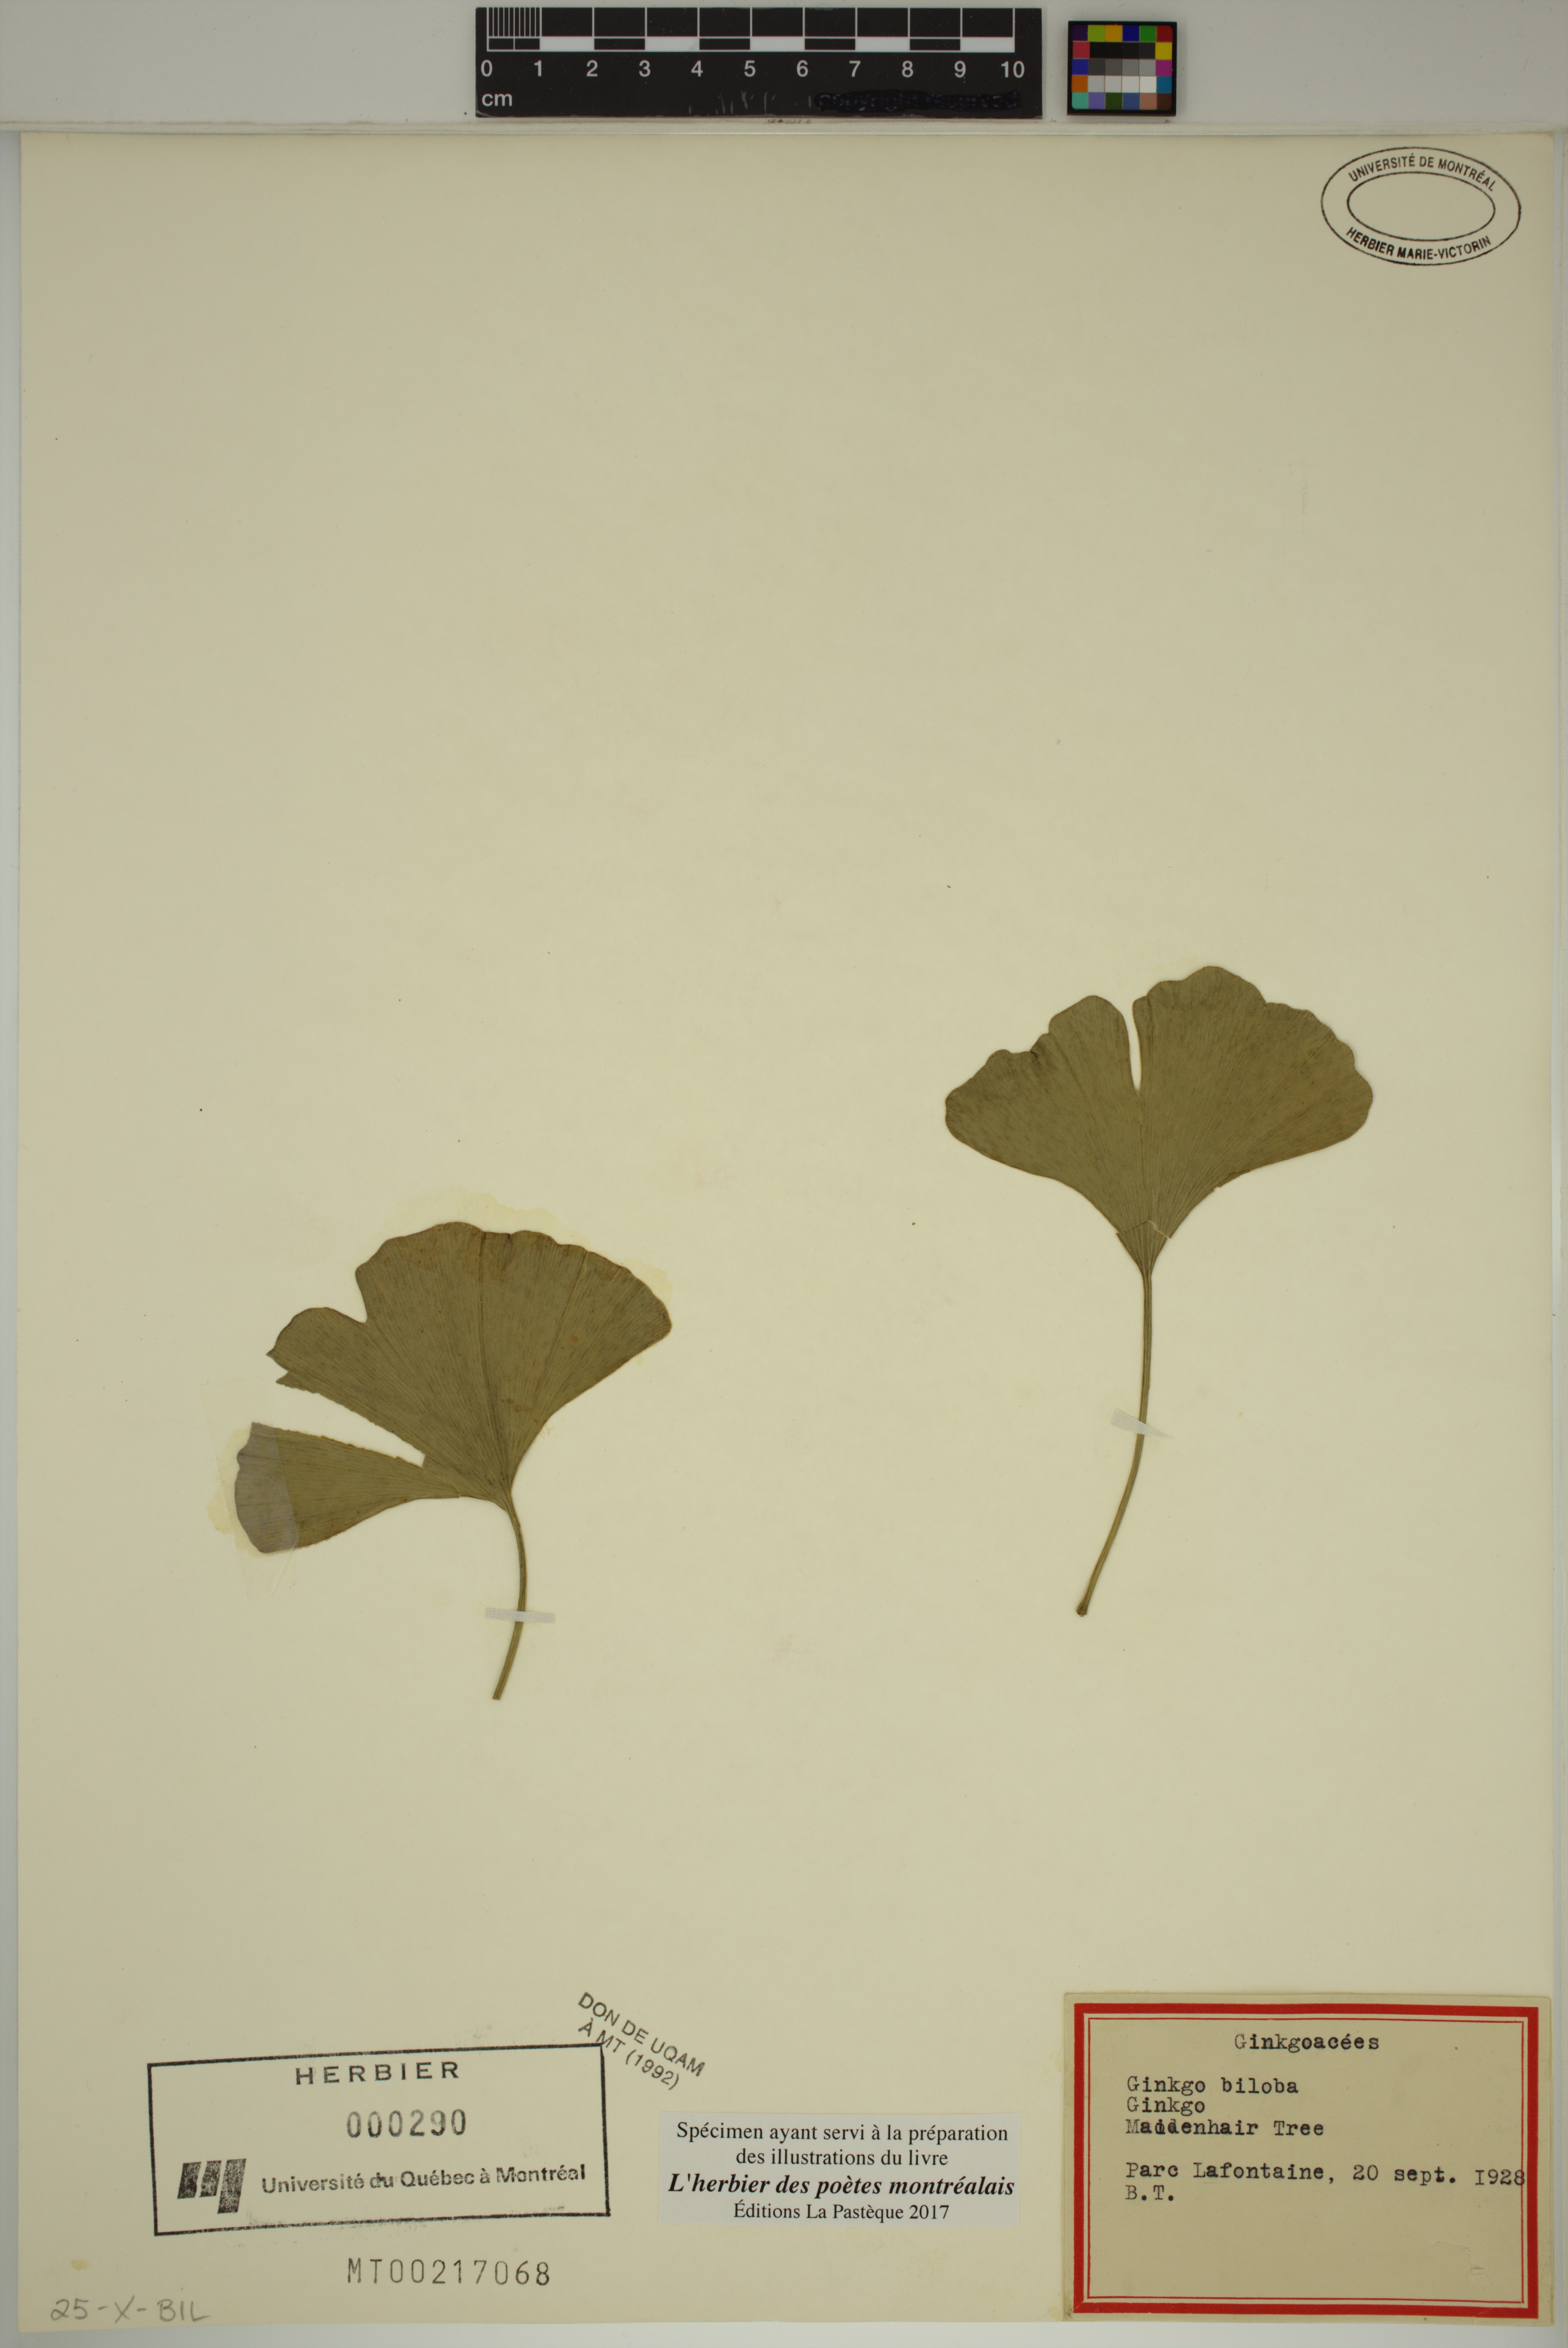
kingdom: Plantae
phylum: Tracheophyta
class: Ginkgoopsida
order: Ginkgoales
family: Ginkgoaceae
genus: Ginkgo
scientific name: Ginkgo biloba
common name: Ginkgo
